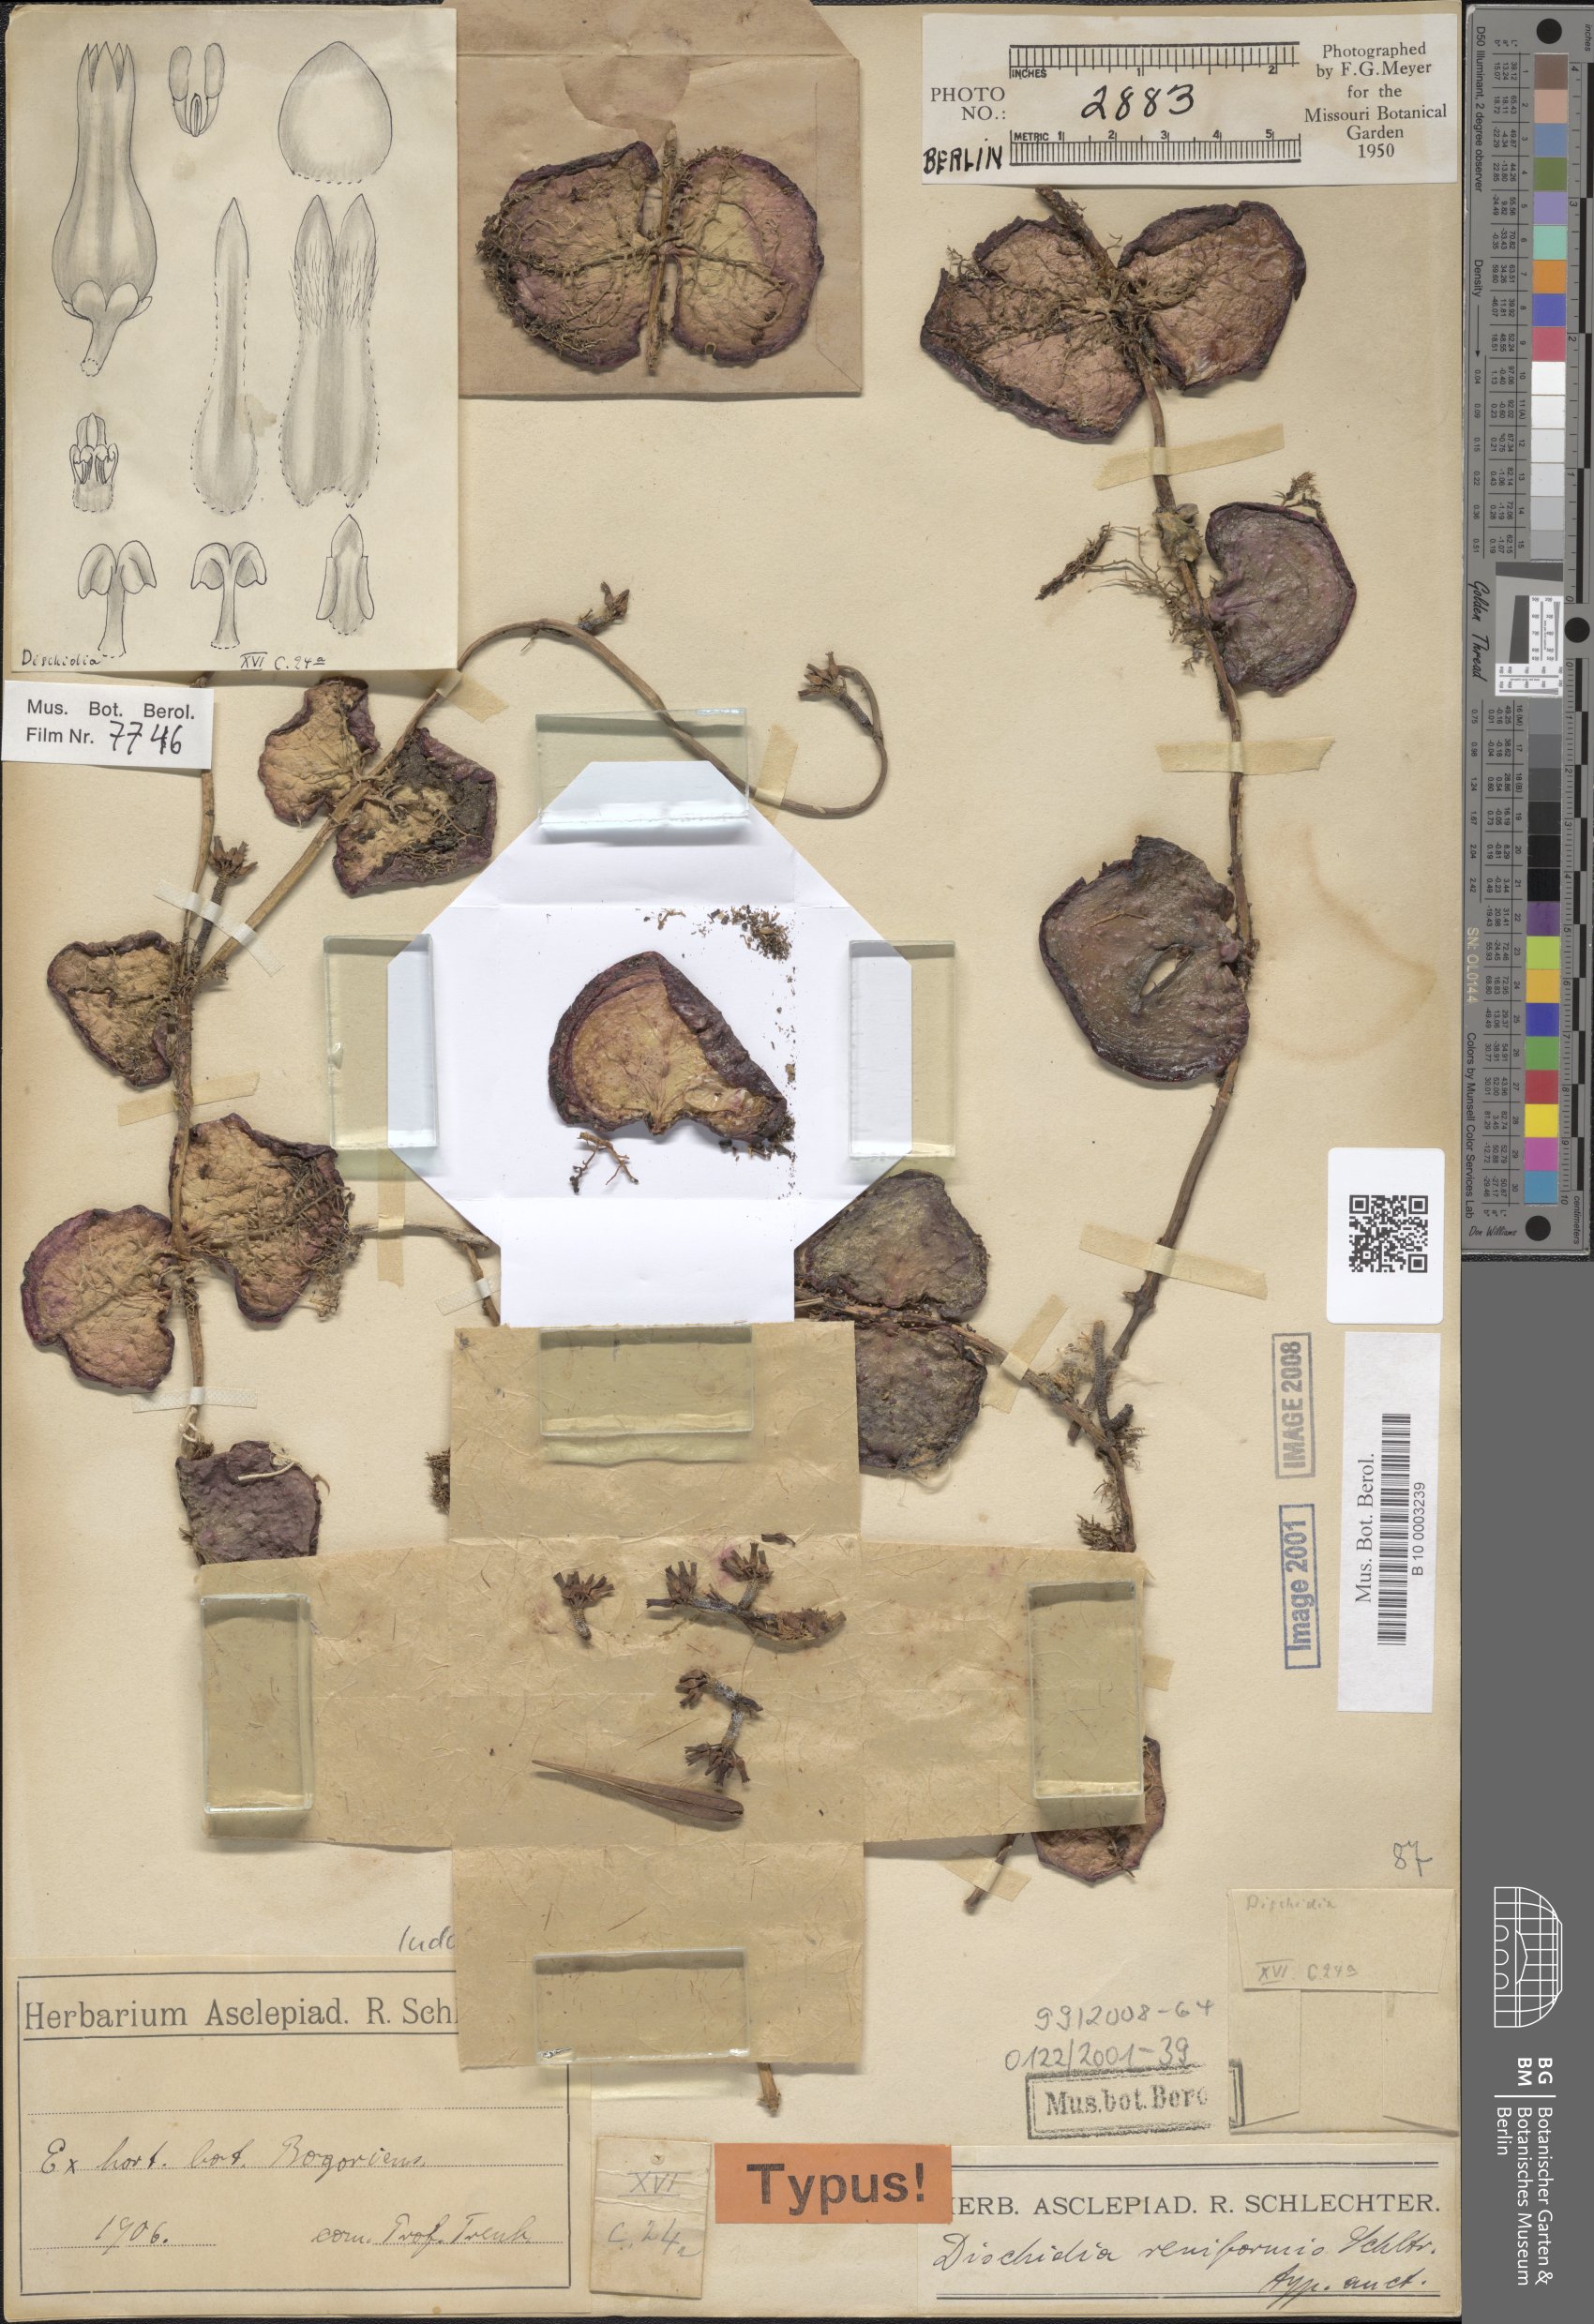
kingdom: Plantae
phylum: Tracheophyta
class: Magnoliopsida
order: Gentianales
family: Apocynaceae
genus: Dischidia
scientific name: Dischidia reniformis
